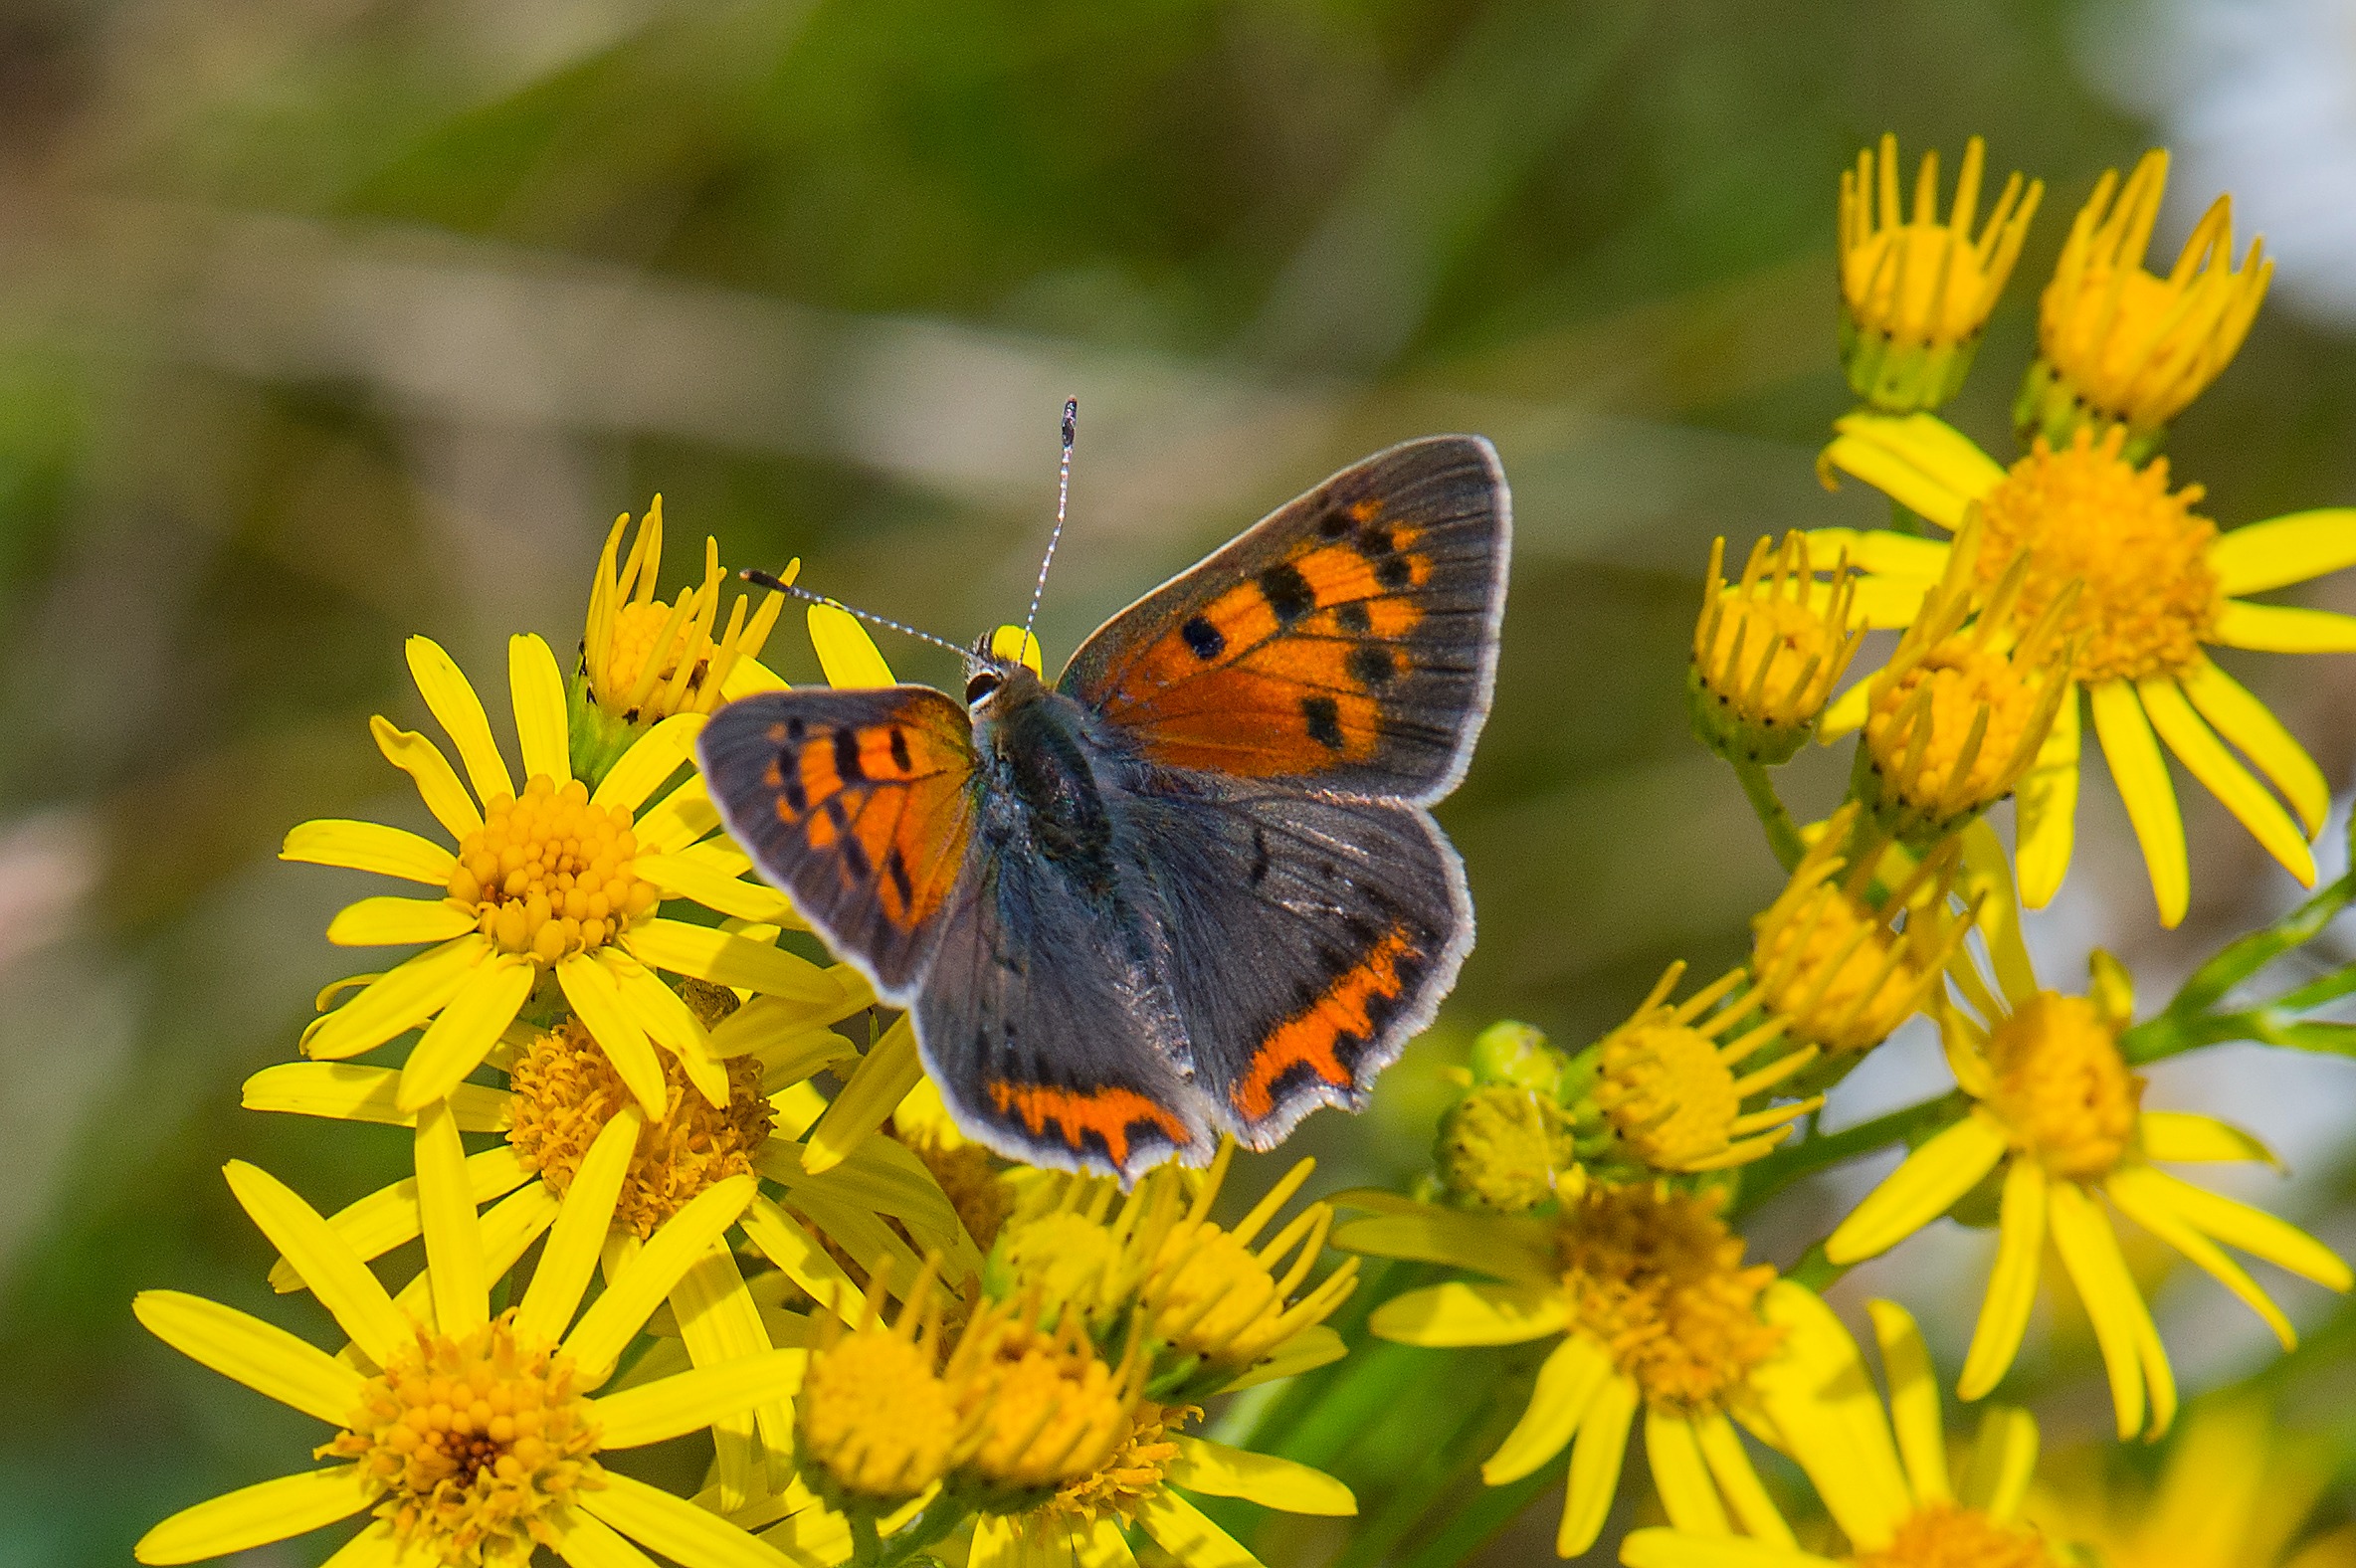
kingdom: Animalia
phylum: Arthropoda
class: Insecta
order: Lepidoptera
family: Lycaenidae
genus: Lycaena
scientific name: Lycaena phlaeas
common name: Lille ildfugl
